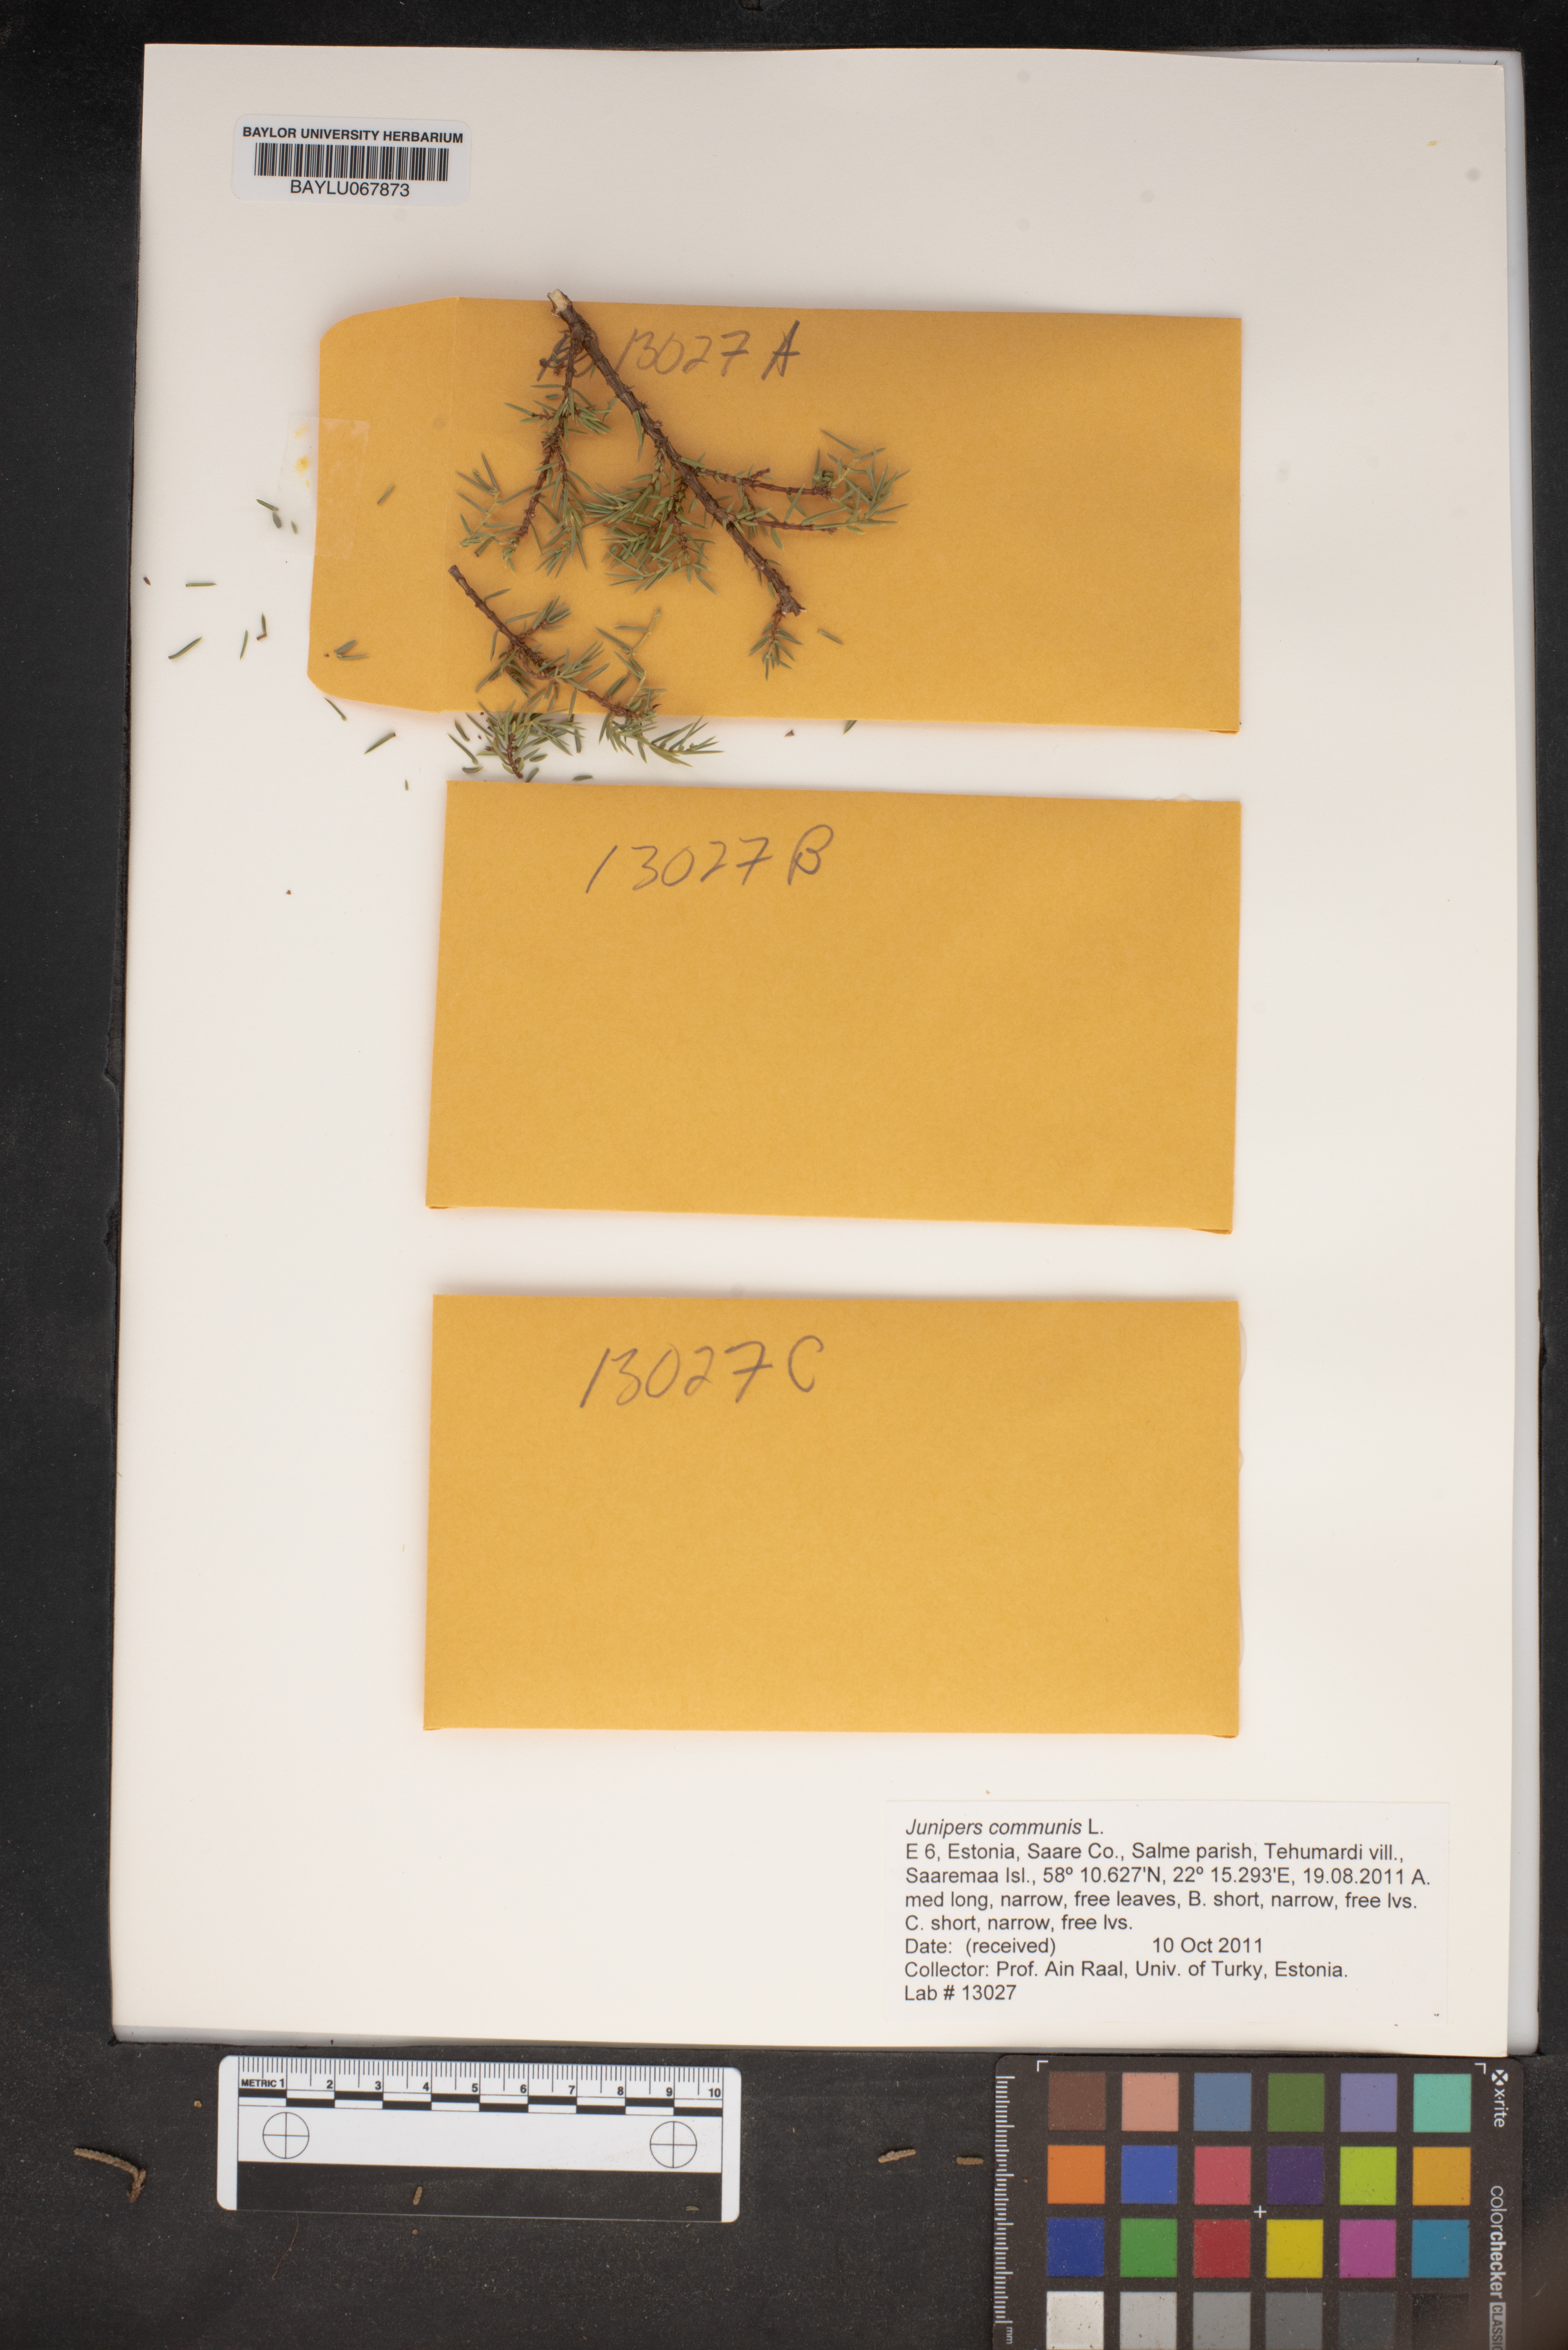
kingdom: Plantae
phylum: Tracheophyta
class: Pinopsida
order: Pinales
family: Cupressaceae
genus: Juniperus
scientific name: Juniperus communis
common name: Common juniper
